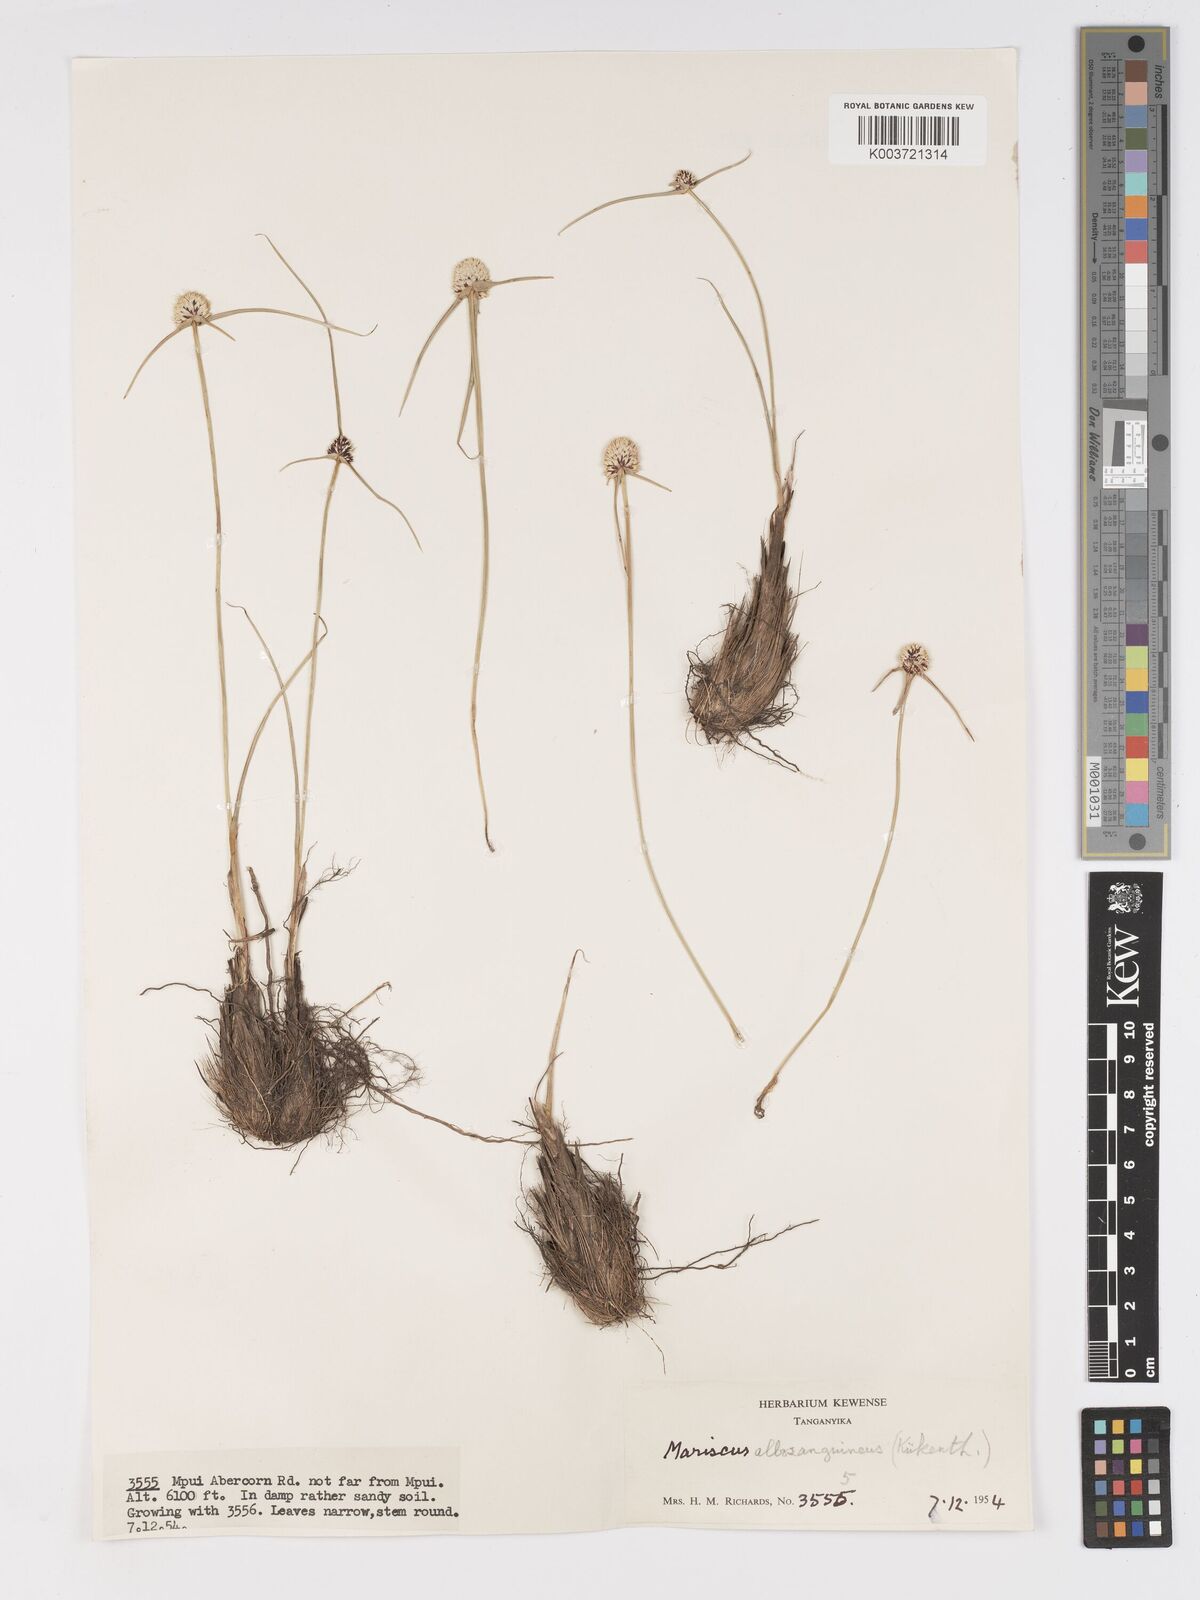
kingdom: Plantae
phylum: Tracheophyta
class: Liliopsida
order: Poales
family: Cyperaceae
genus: Cyperus
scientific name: Cyperus albosanguineus
